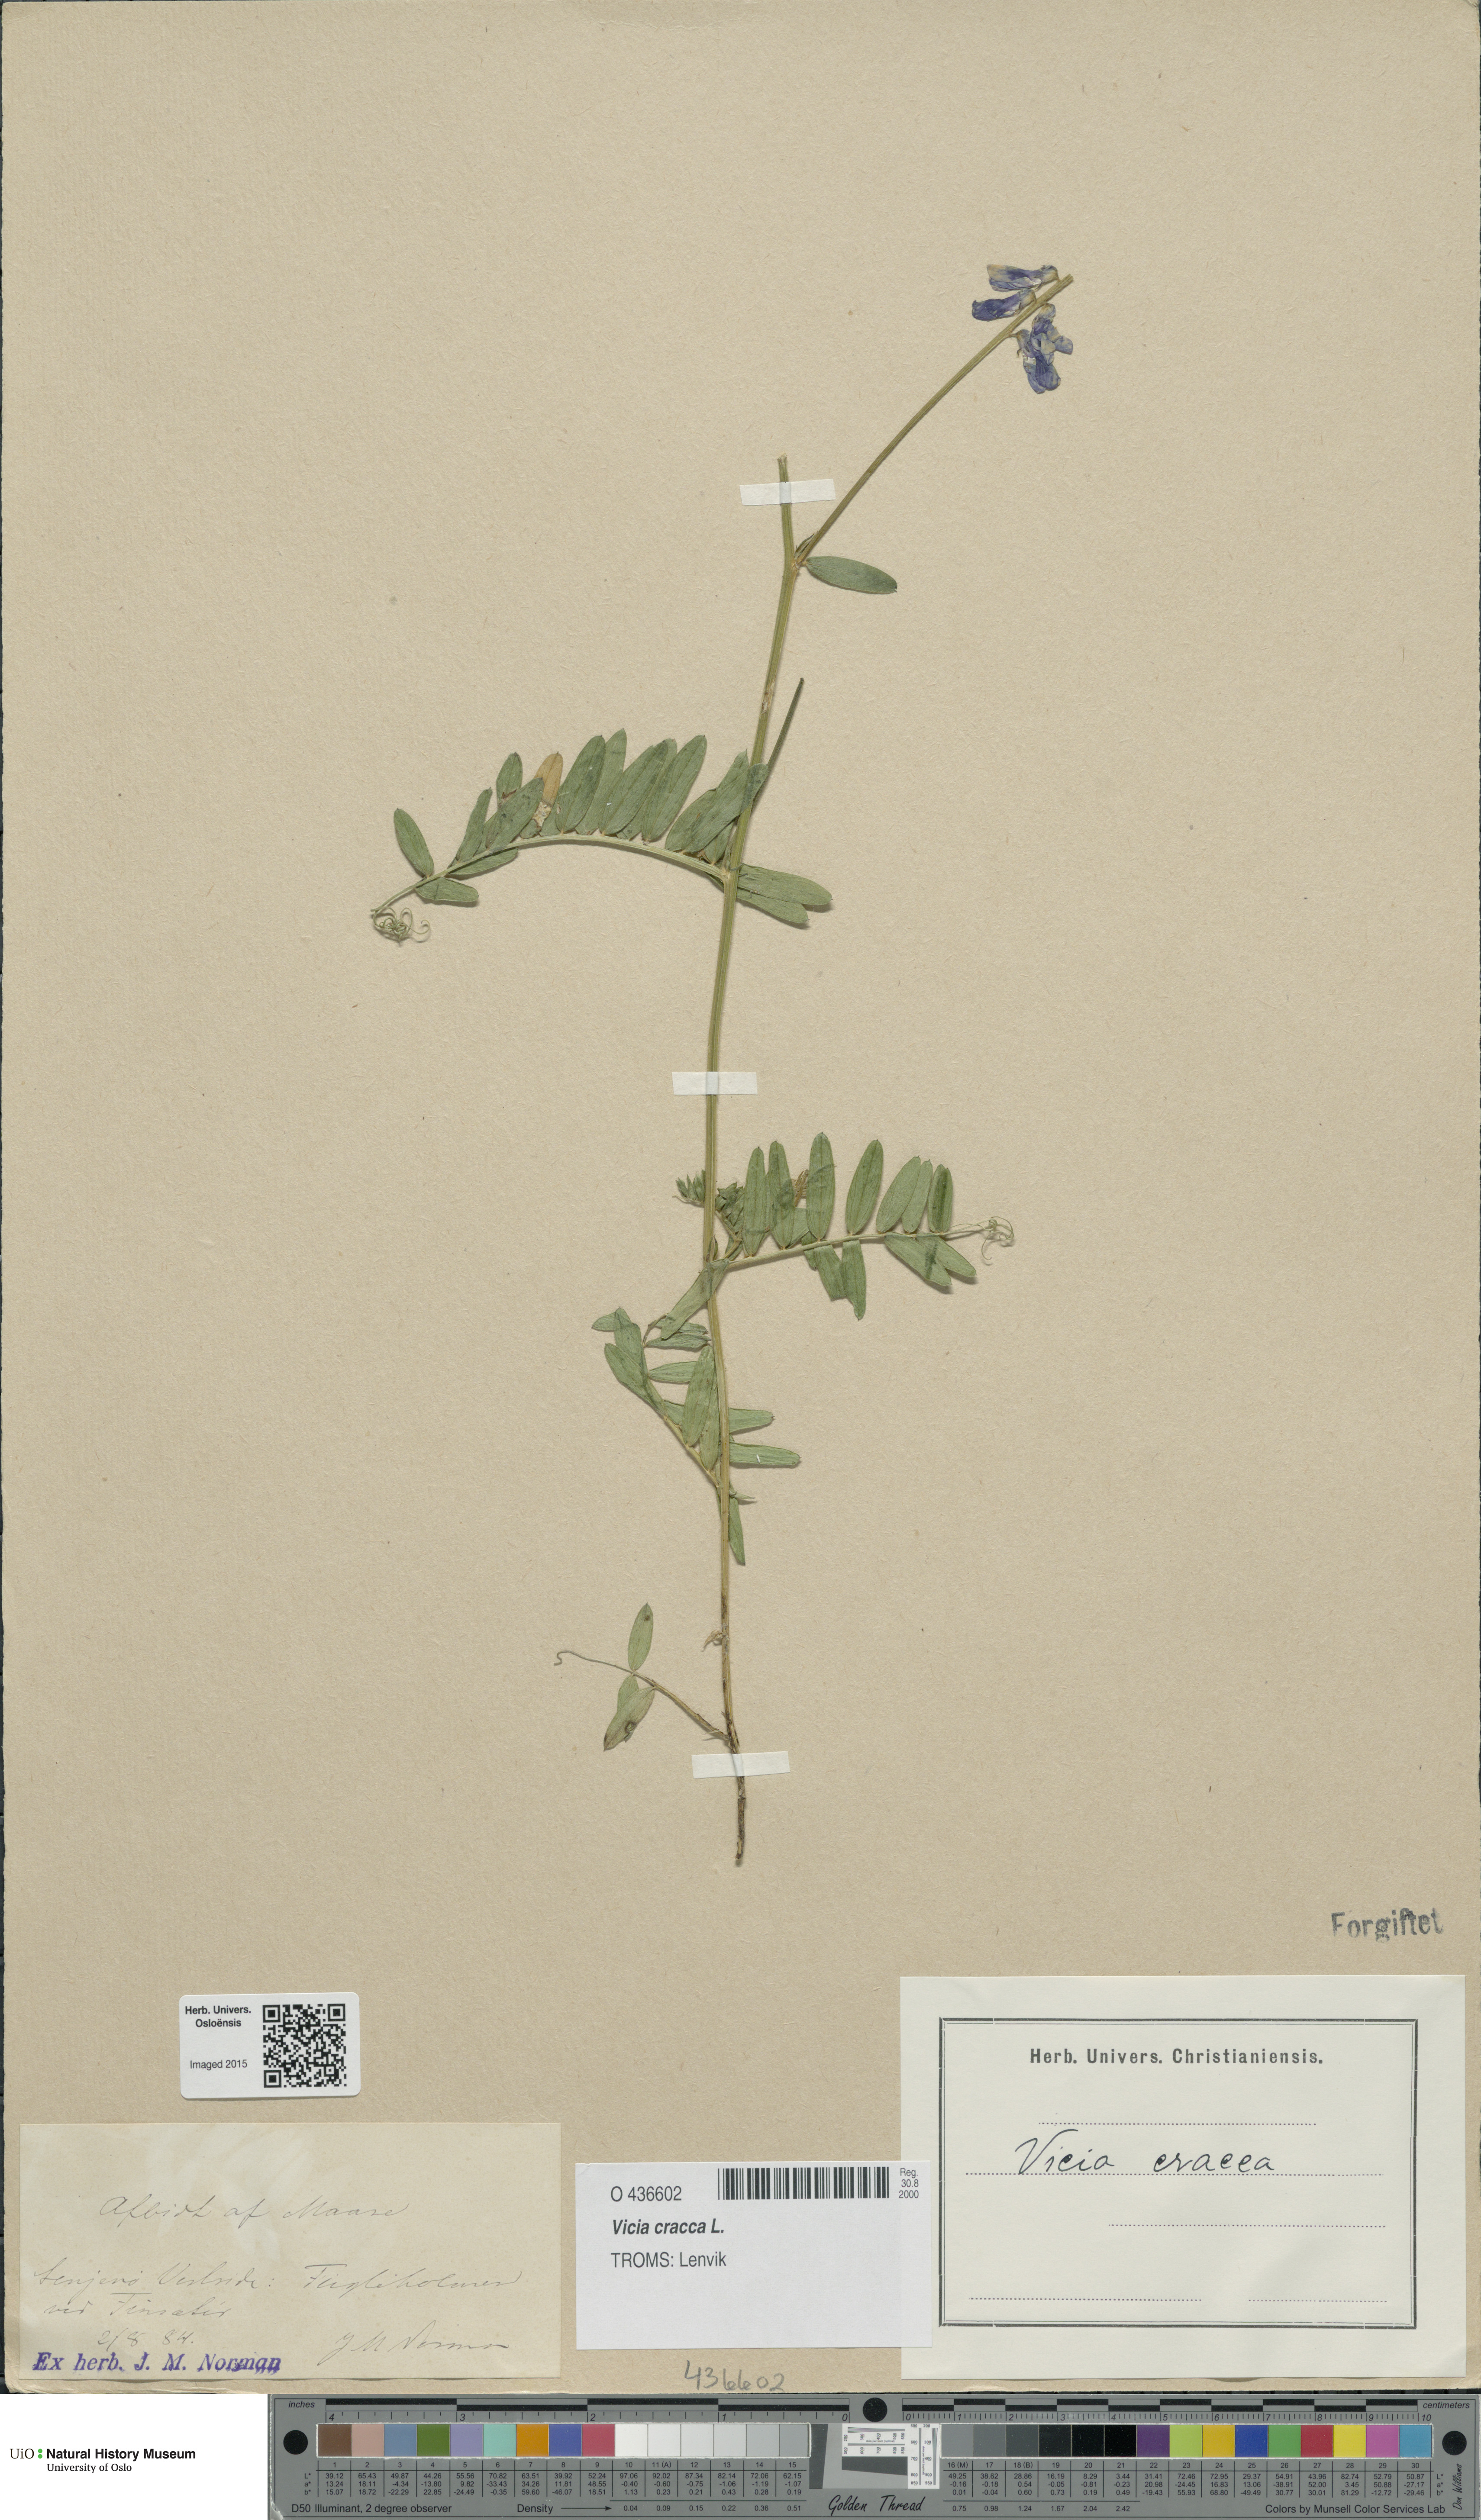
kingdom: Plantae
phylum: Tracheophyta
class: Magnoliopsida
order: Fabales
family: Fabaceae
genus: Vicia
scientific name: Vicia cracca
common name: Bird vetch
